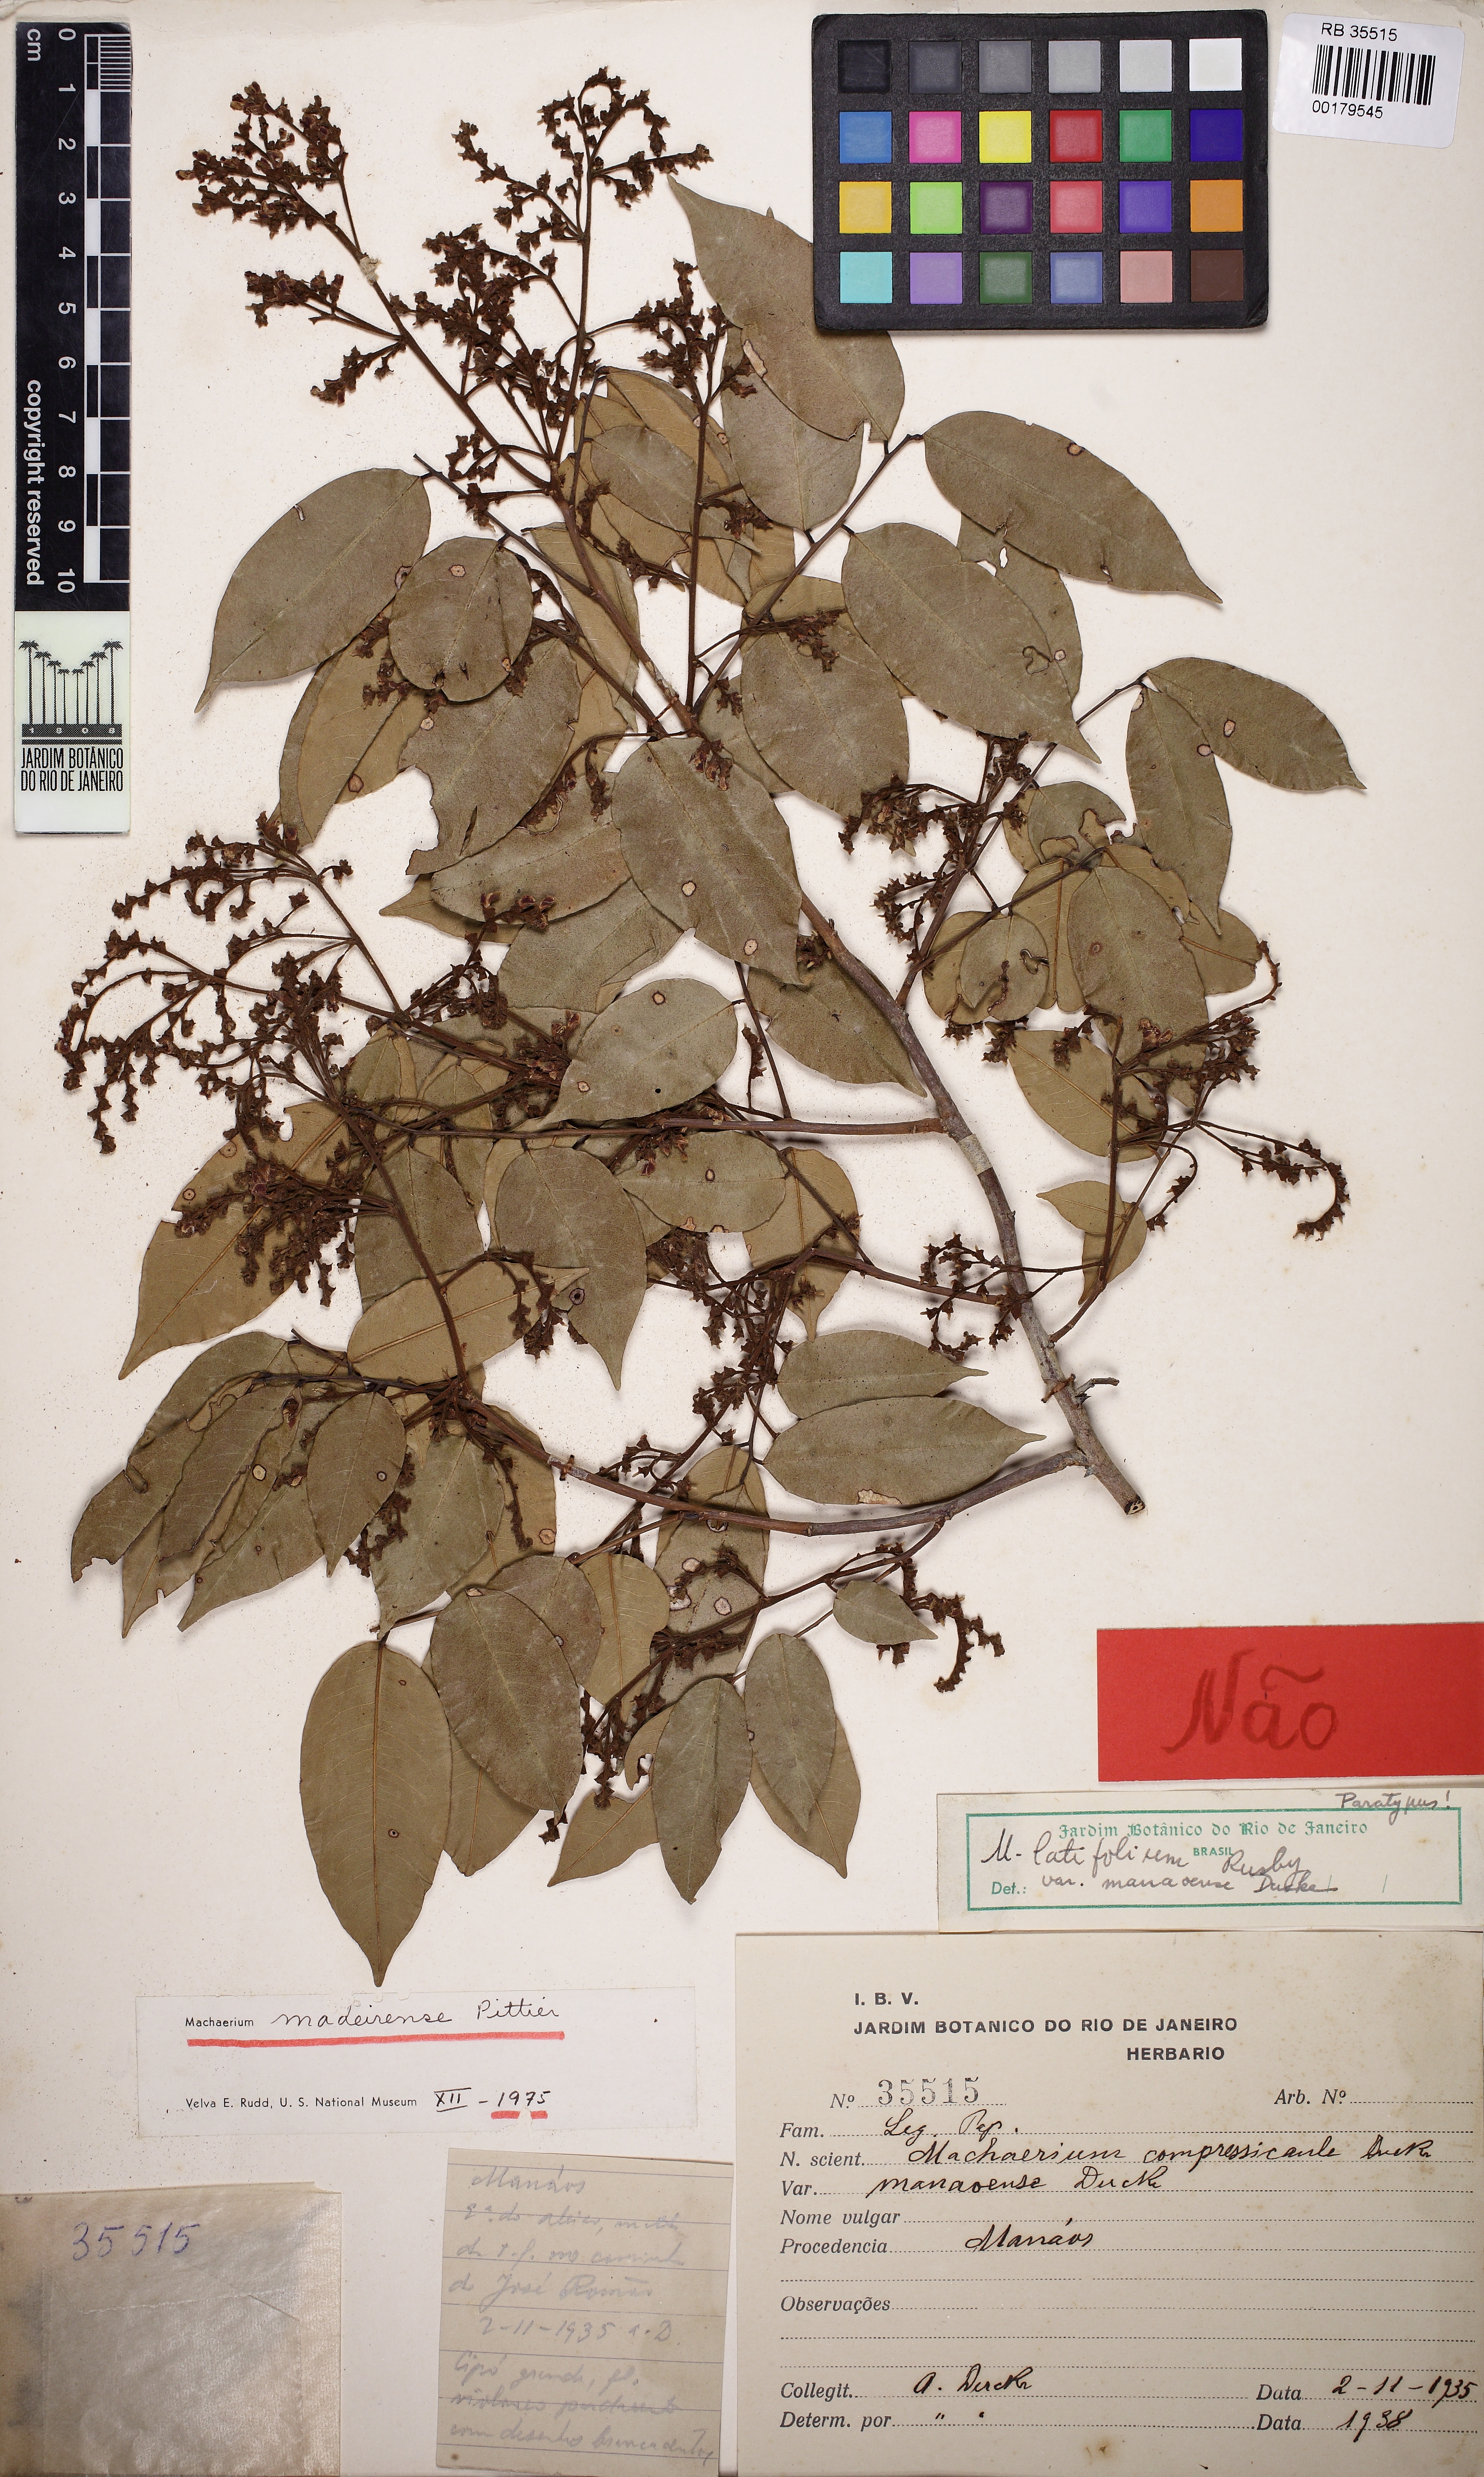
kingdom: Plantae
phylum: Tracheophyta
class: Magnoliopsida
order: Fabales
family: Fabaceae
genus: Machaerium
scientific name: Machaerium madeirense
